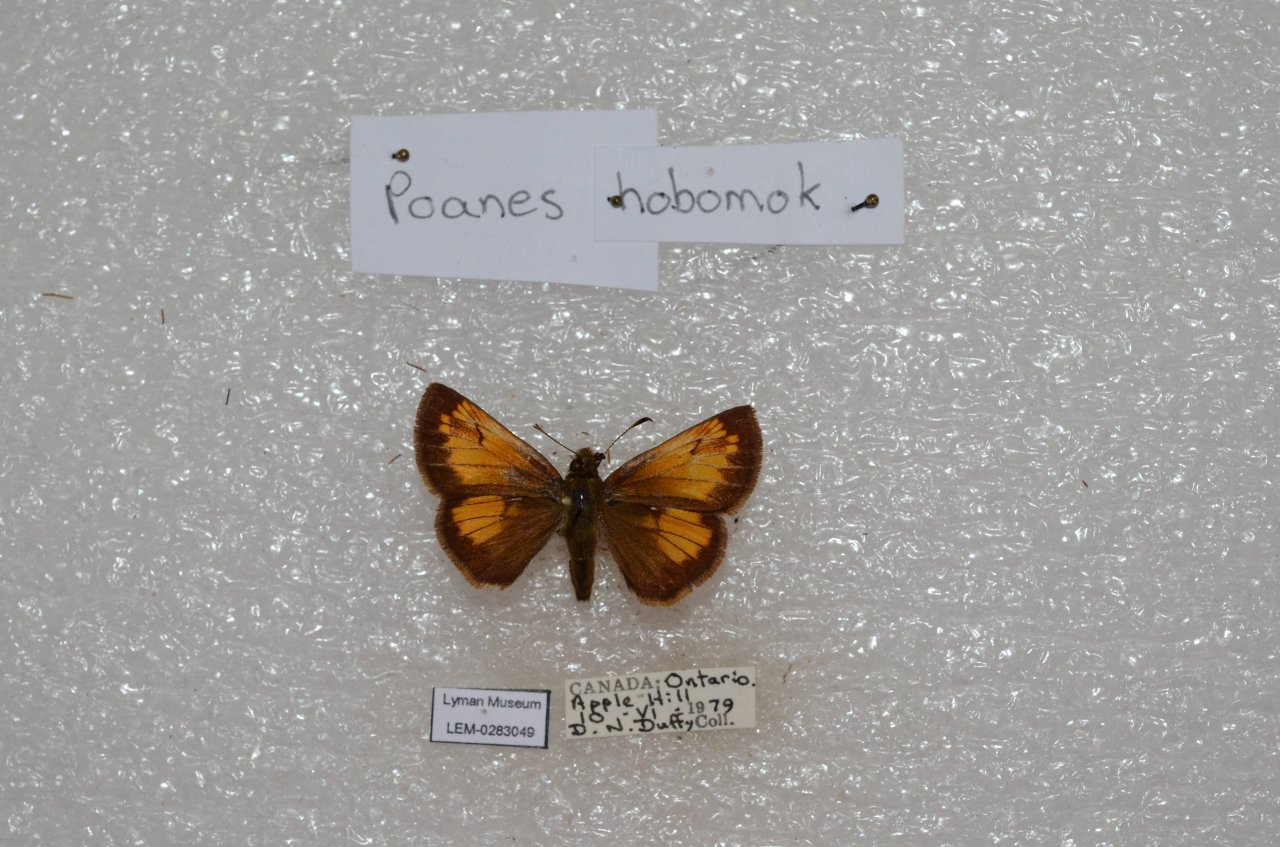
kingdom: Animalia
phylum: Arthropoda
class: Insecta
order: Lepidoptera
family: Hesperiidae
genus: Lon
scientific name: Lon hobomok
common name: Hobomok Skipper
